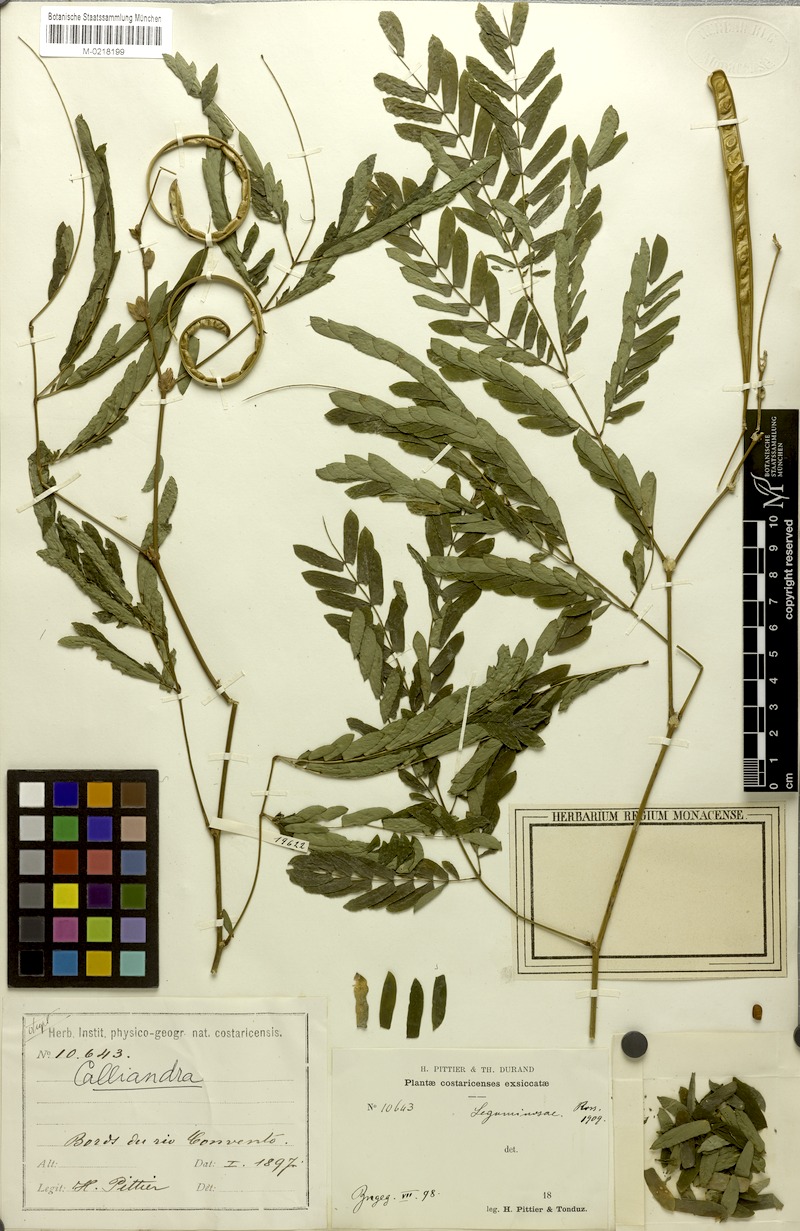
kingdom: Plantae
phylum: Tracheophyta
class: Magnoliopsida
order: Fabales
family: Fabaceae
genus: Zapoteca
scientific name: Zapoteca costaricensis
